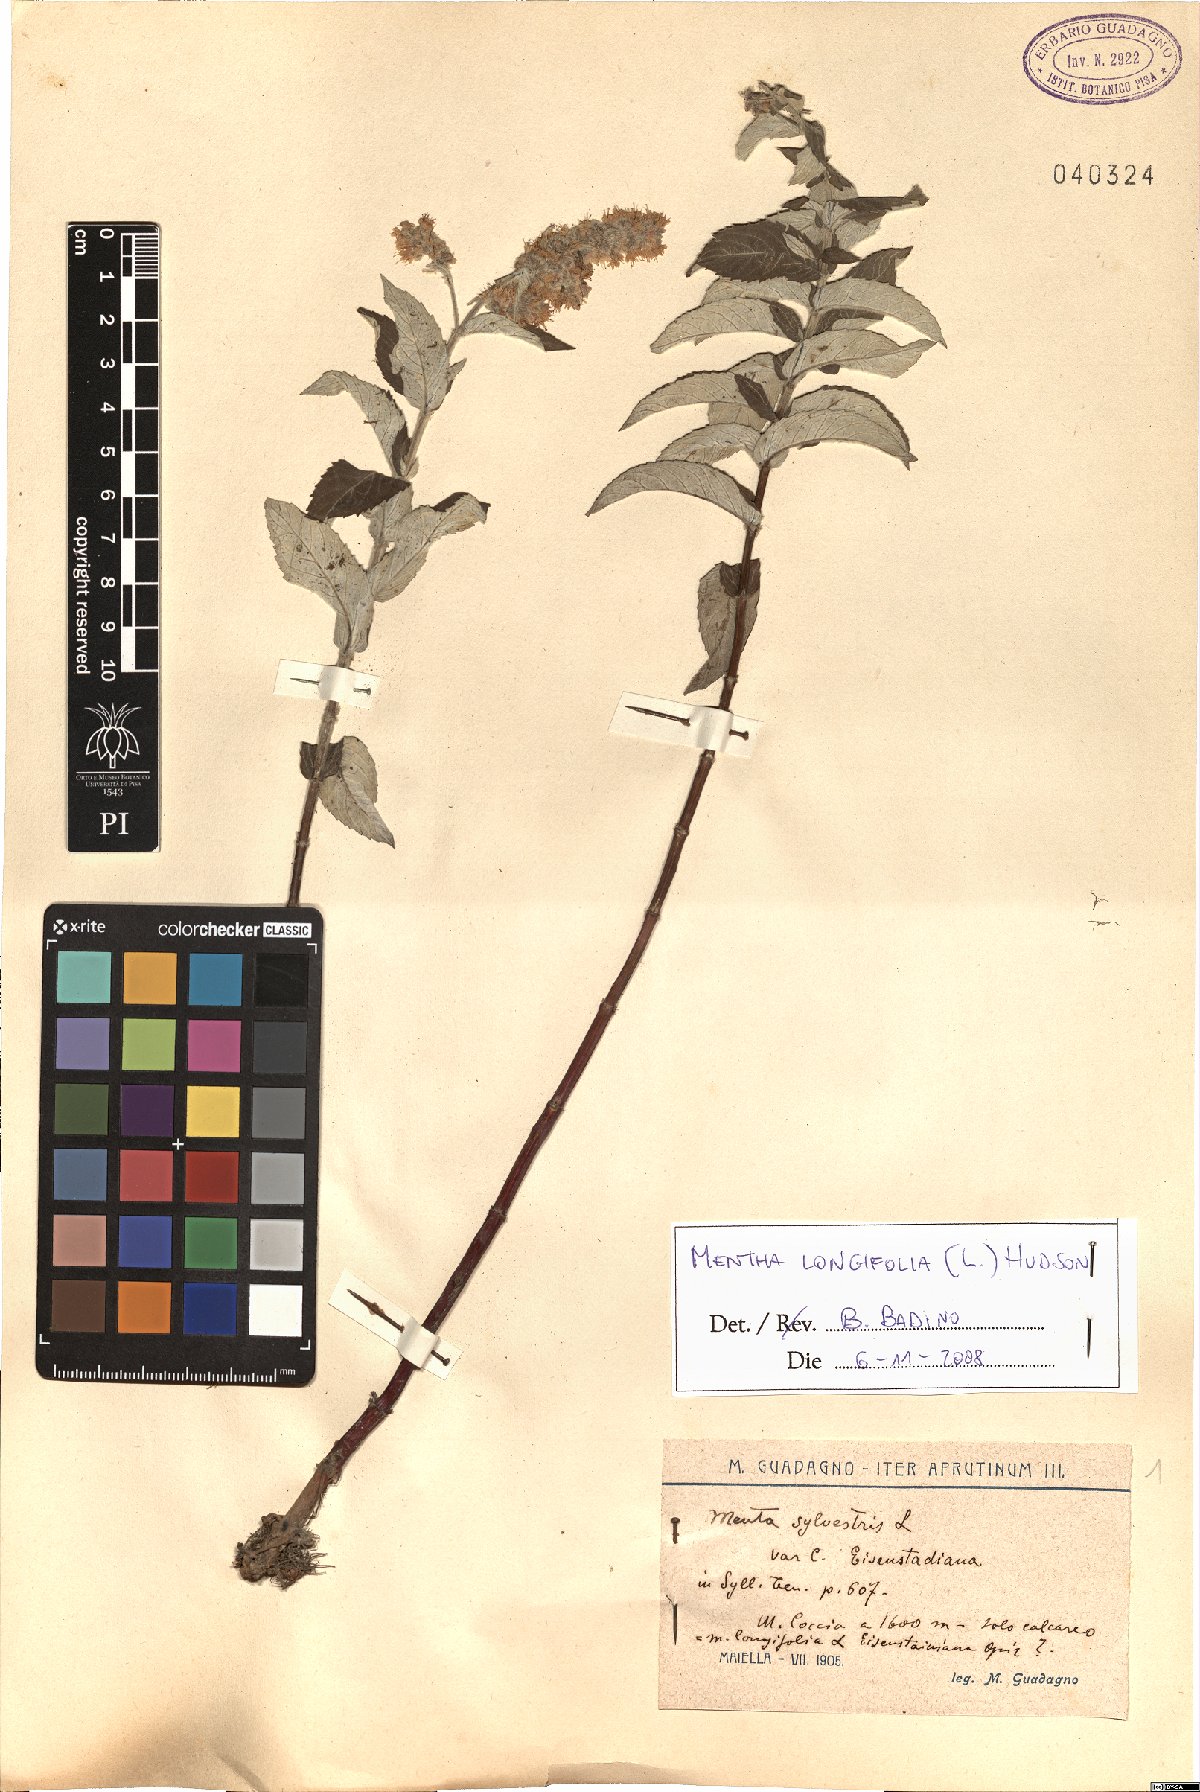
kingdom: Plantae
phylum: Tracheophyta
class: Magnoliopsida
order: Lamiales
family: Lamiaceae
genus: Mentha
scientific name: Mentha longifolia
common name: Horse mint
